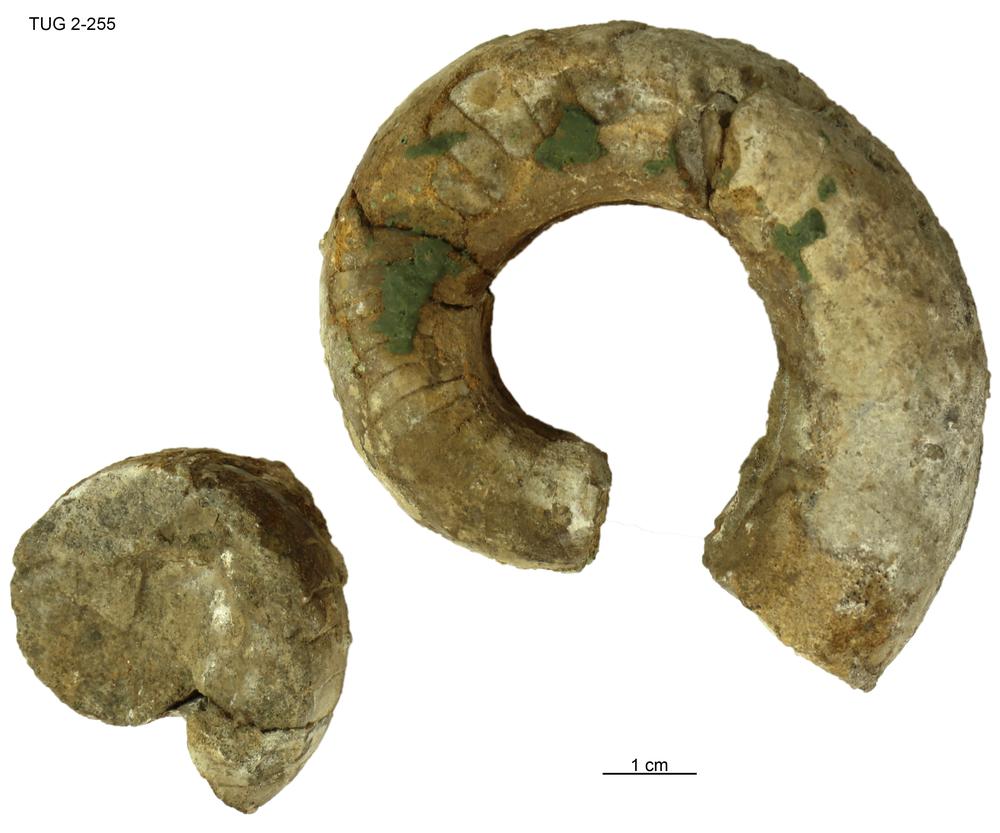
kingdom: Animalia
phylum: Mollusca
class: Cephalopoda
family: Estonioceratidae
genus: Estonioceras
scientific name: Estonioceras
